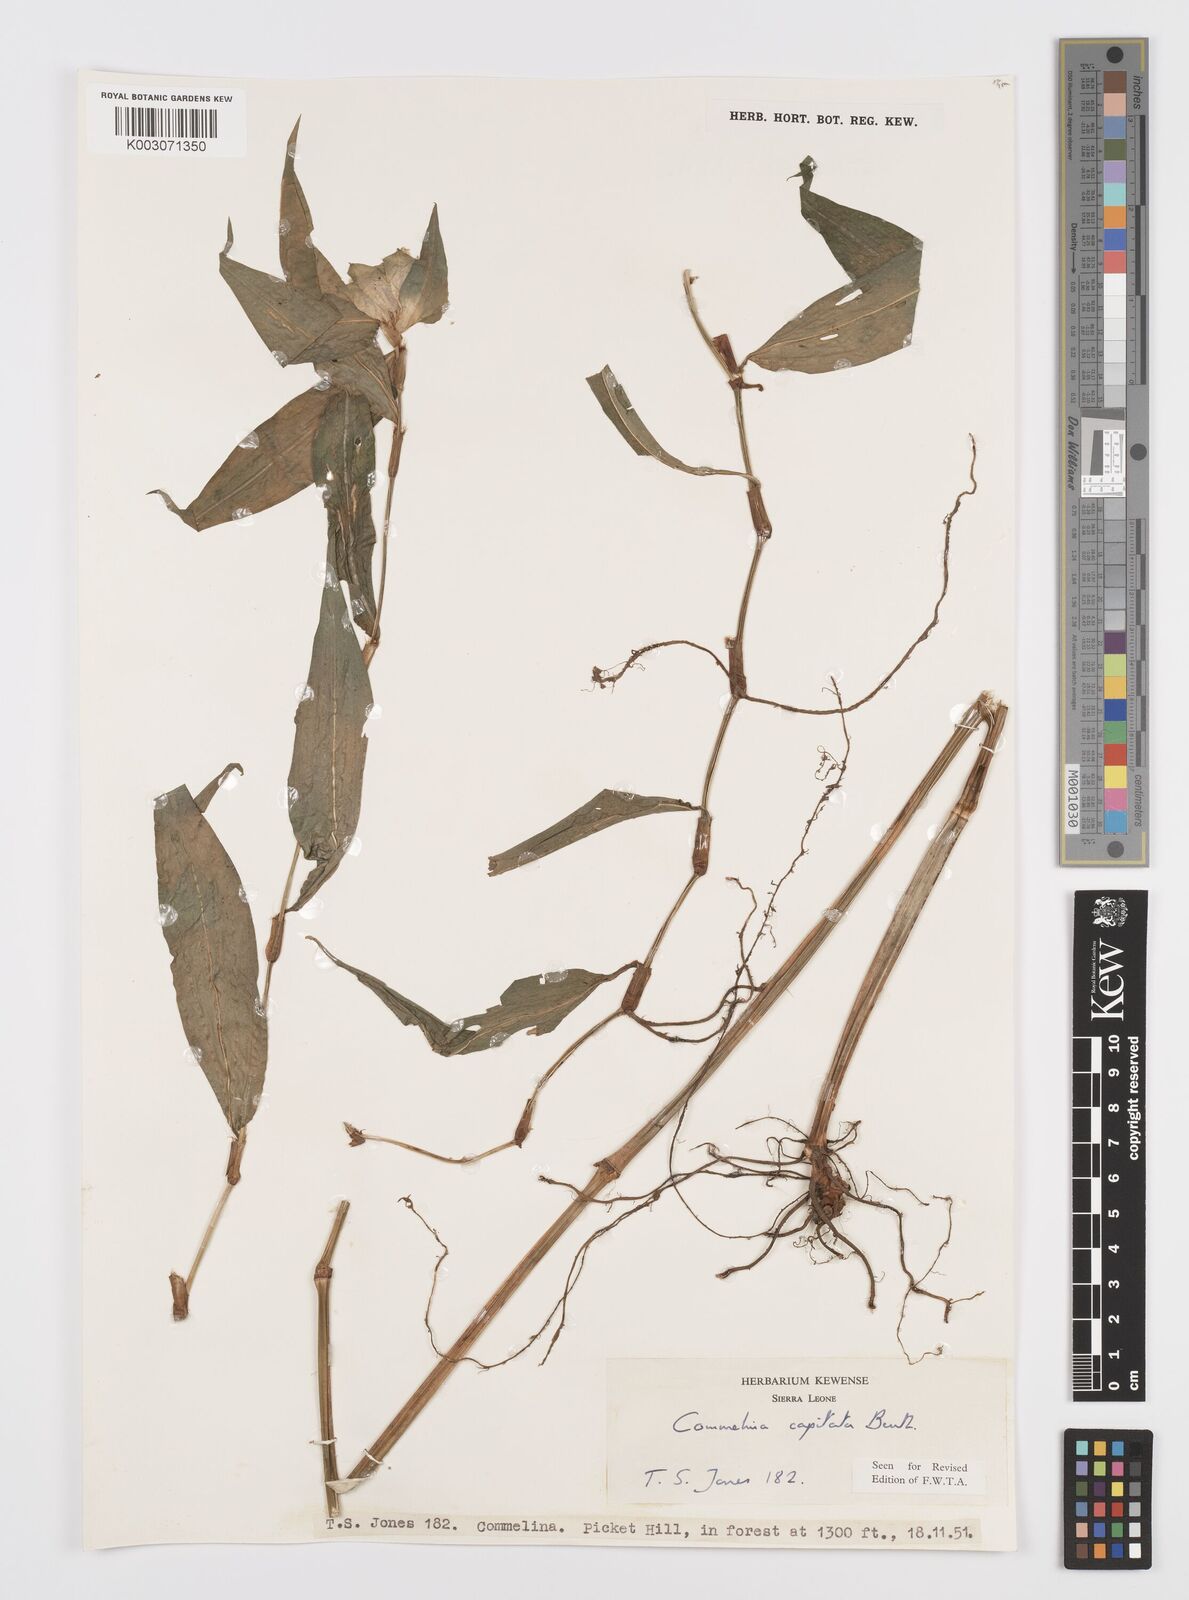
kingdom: Plantae
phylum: Tracheophyta
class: Liliopsida
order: Commelinales
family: Commelinaceae
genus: Commelina
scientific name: Commelina capitata
